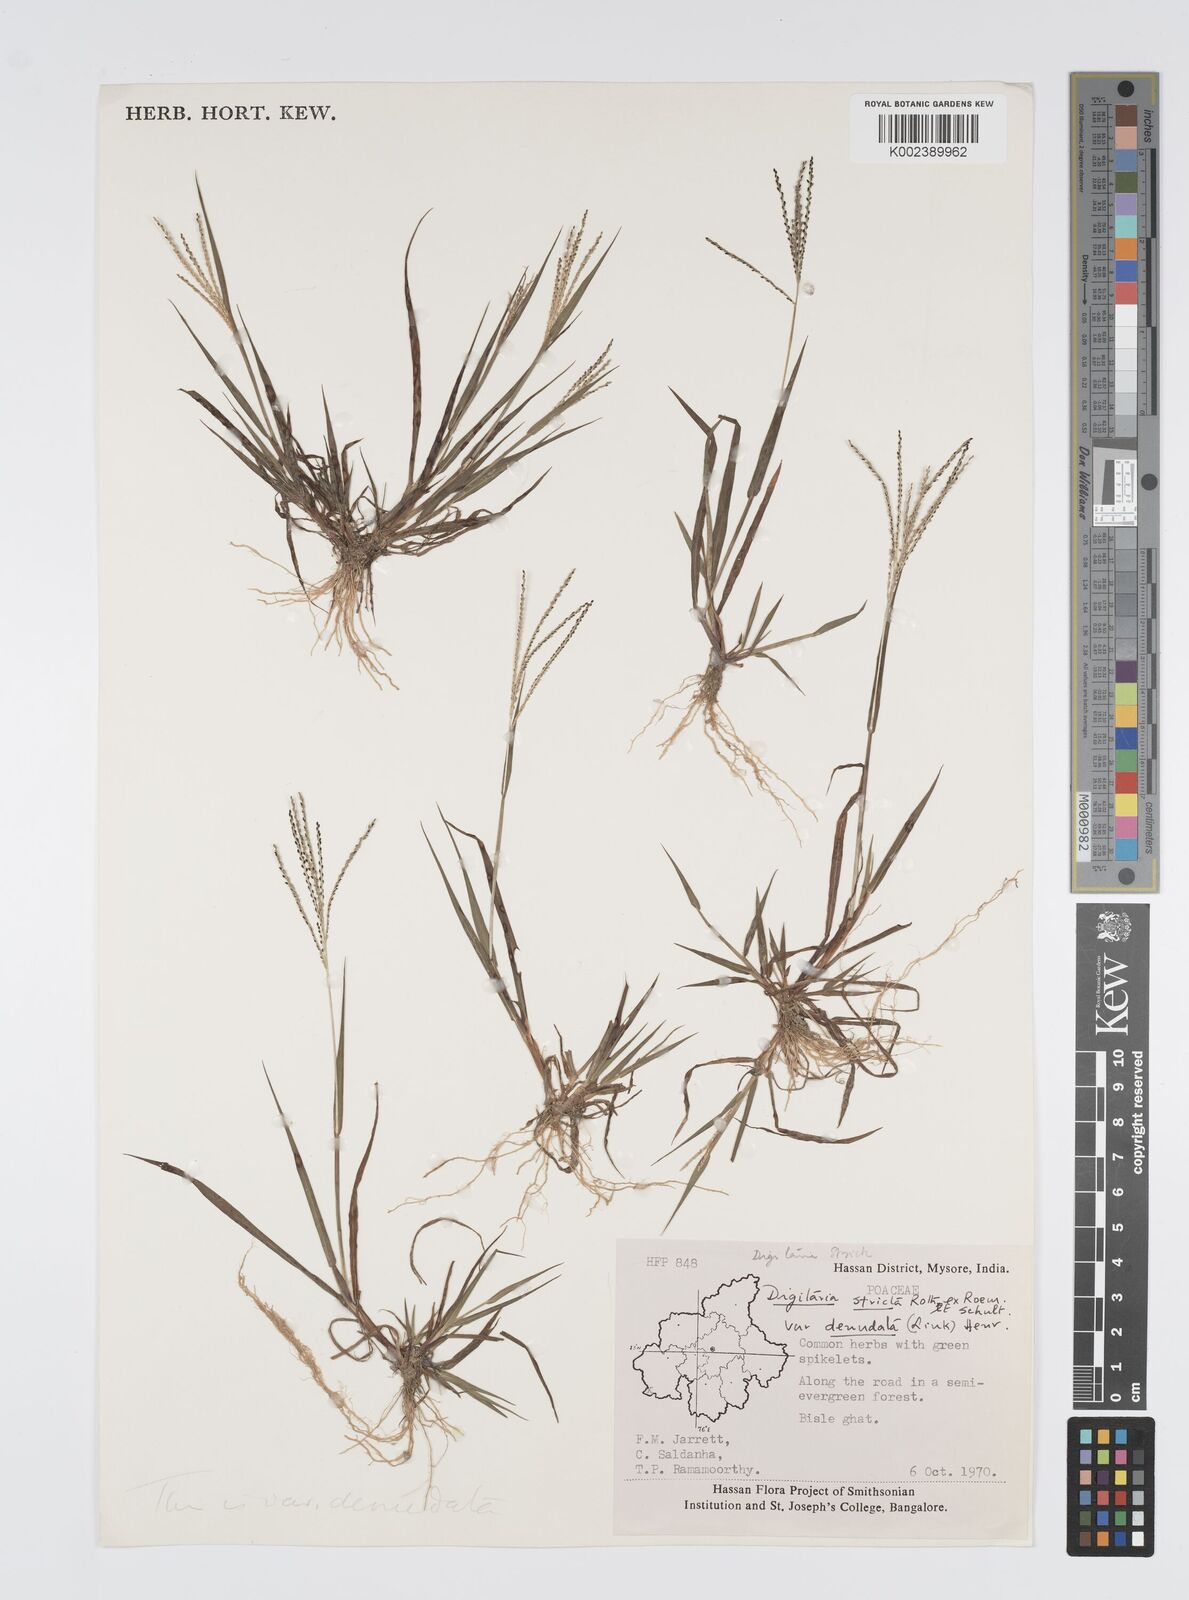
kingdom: Plantae
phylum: Tracheophyta
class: Liliopsida
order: Poales
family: Poaceae
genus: Digitaria
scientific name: Digitaria stricta
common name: Crabgrass
